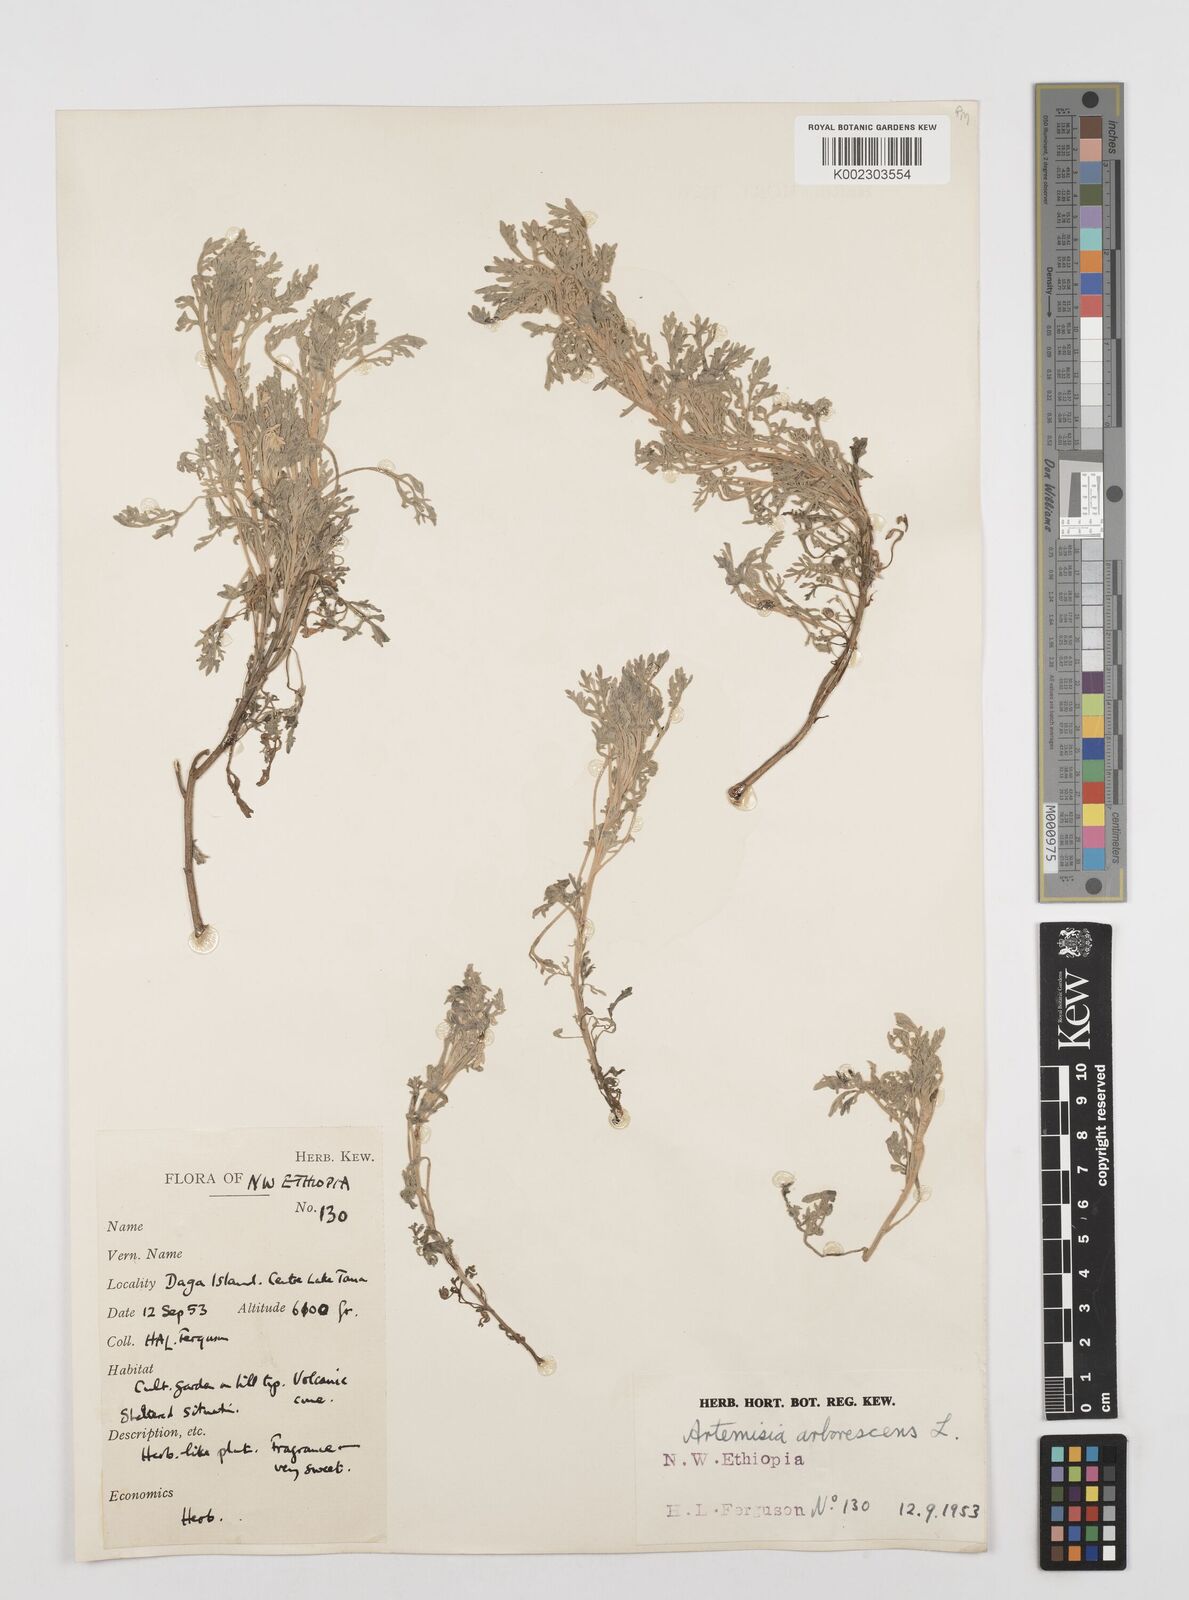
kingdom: Plantae
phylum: Tracheophyta
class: Magnoliopsida
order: Asterales
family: Asteraceae
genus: Artemisia
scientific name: Artemisia arborescens
